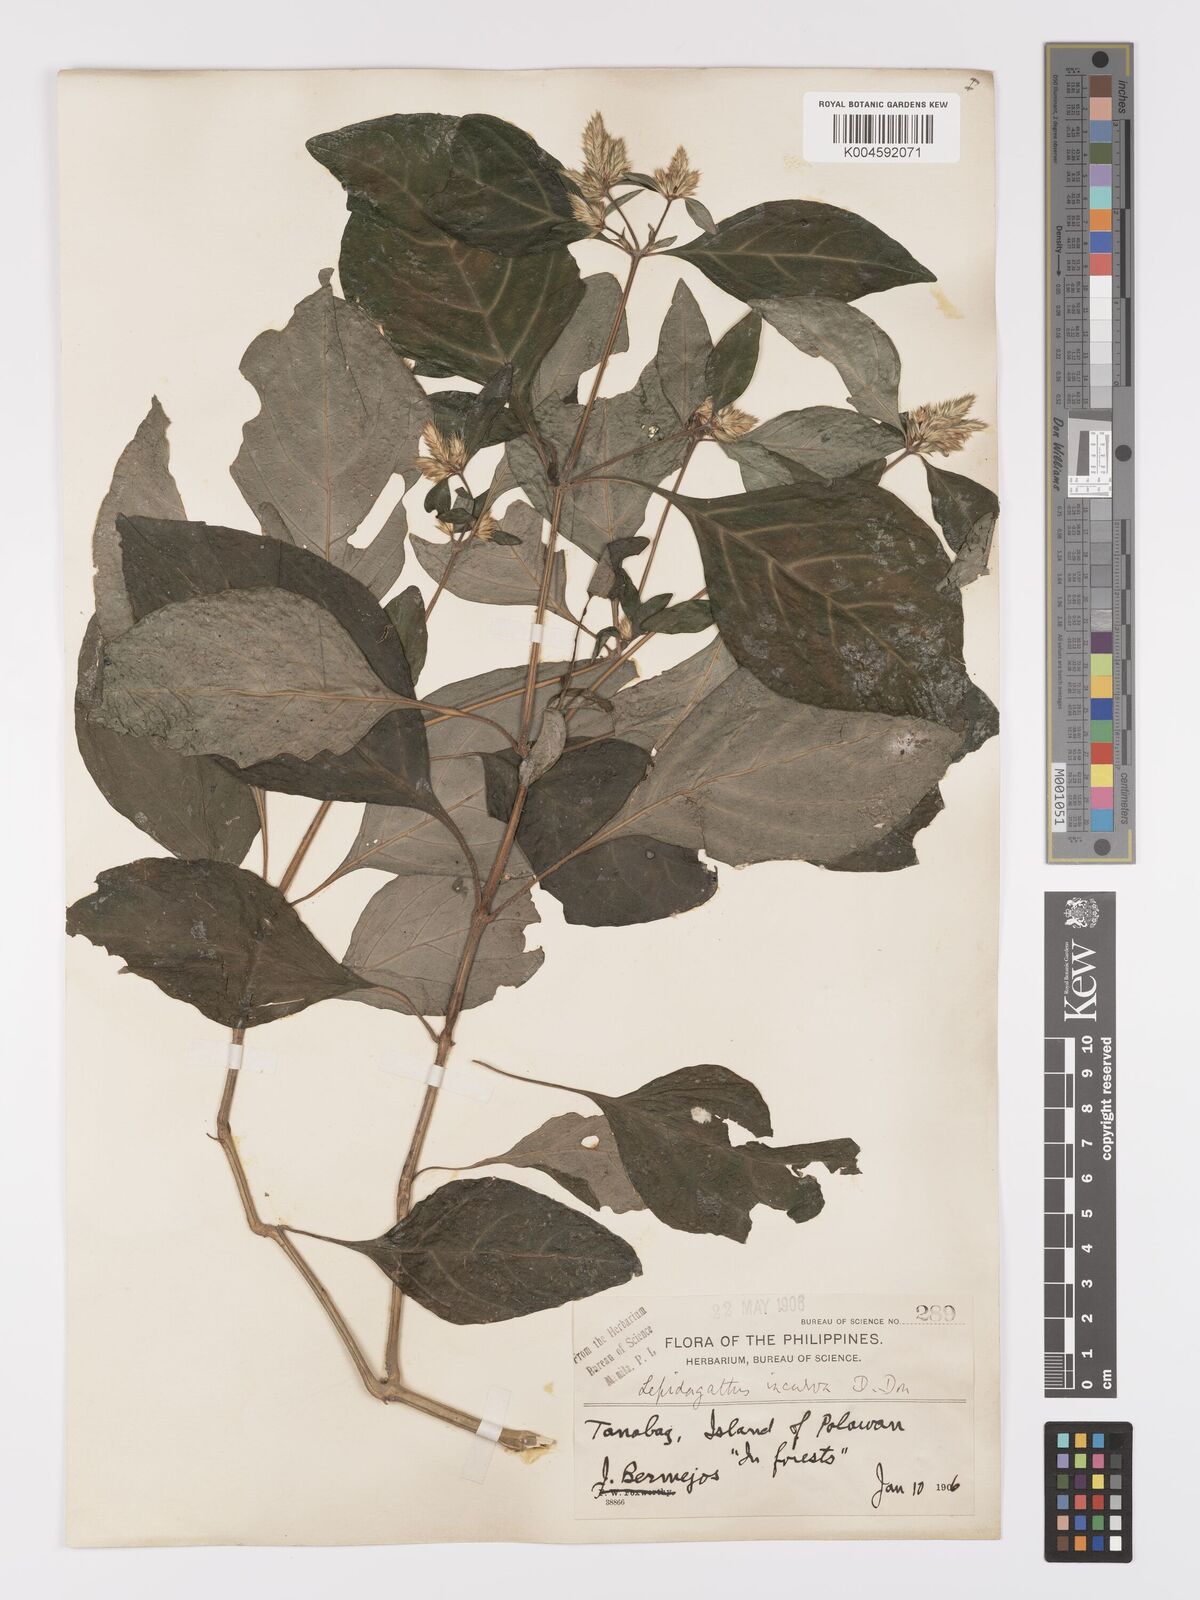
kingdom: Plantae
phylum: Tracheophyta
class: Magnoliopsida
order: Lamiales
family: Acanthaceae
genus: Lepidagathis
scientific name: Lepidagathis incurva
